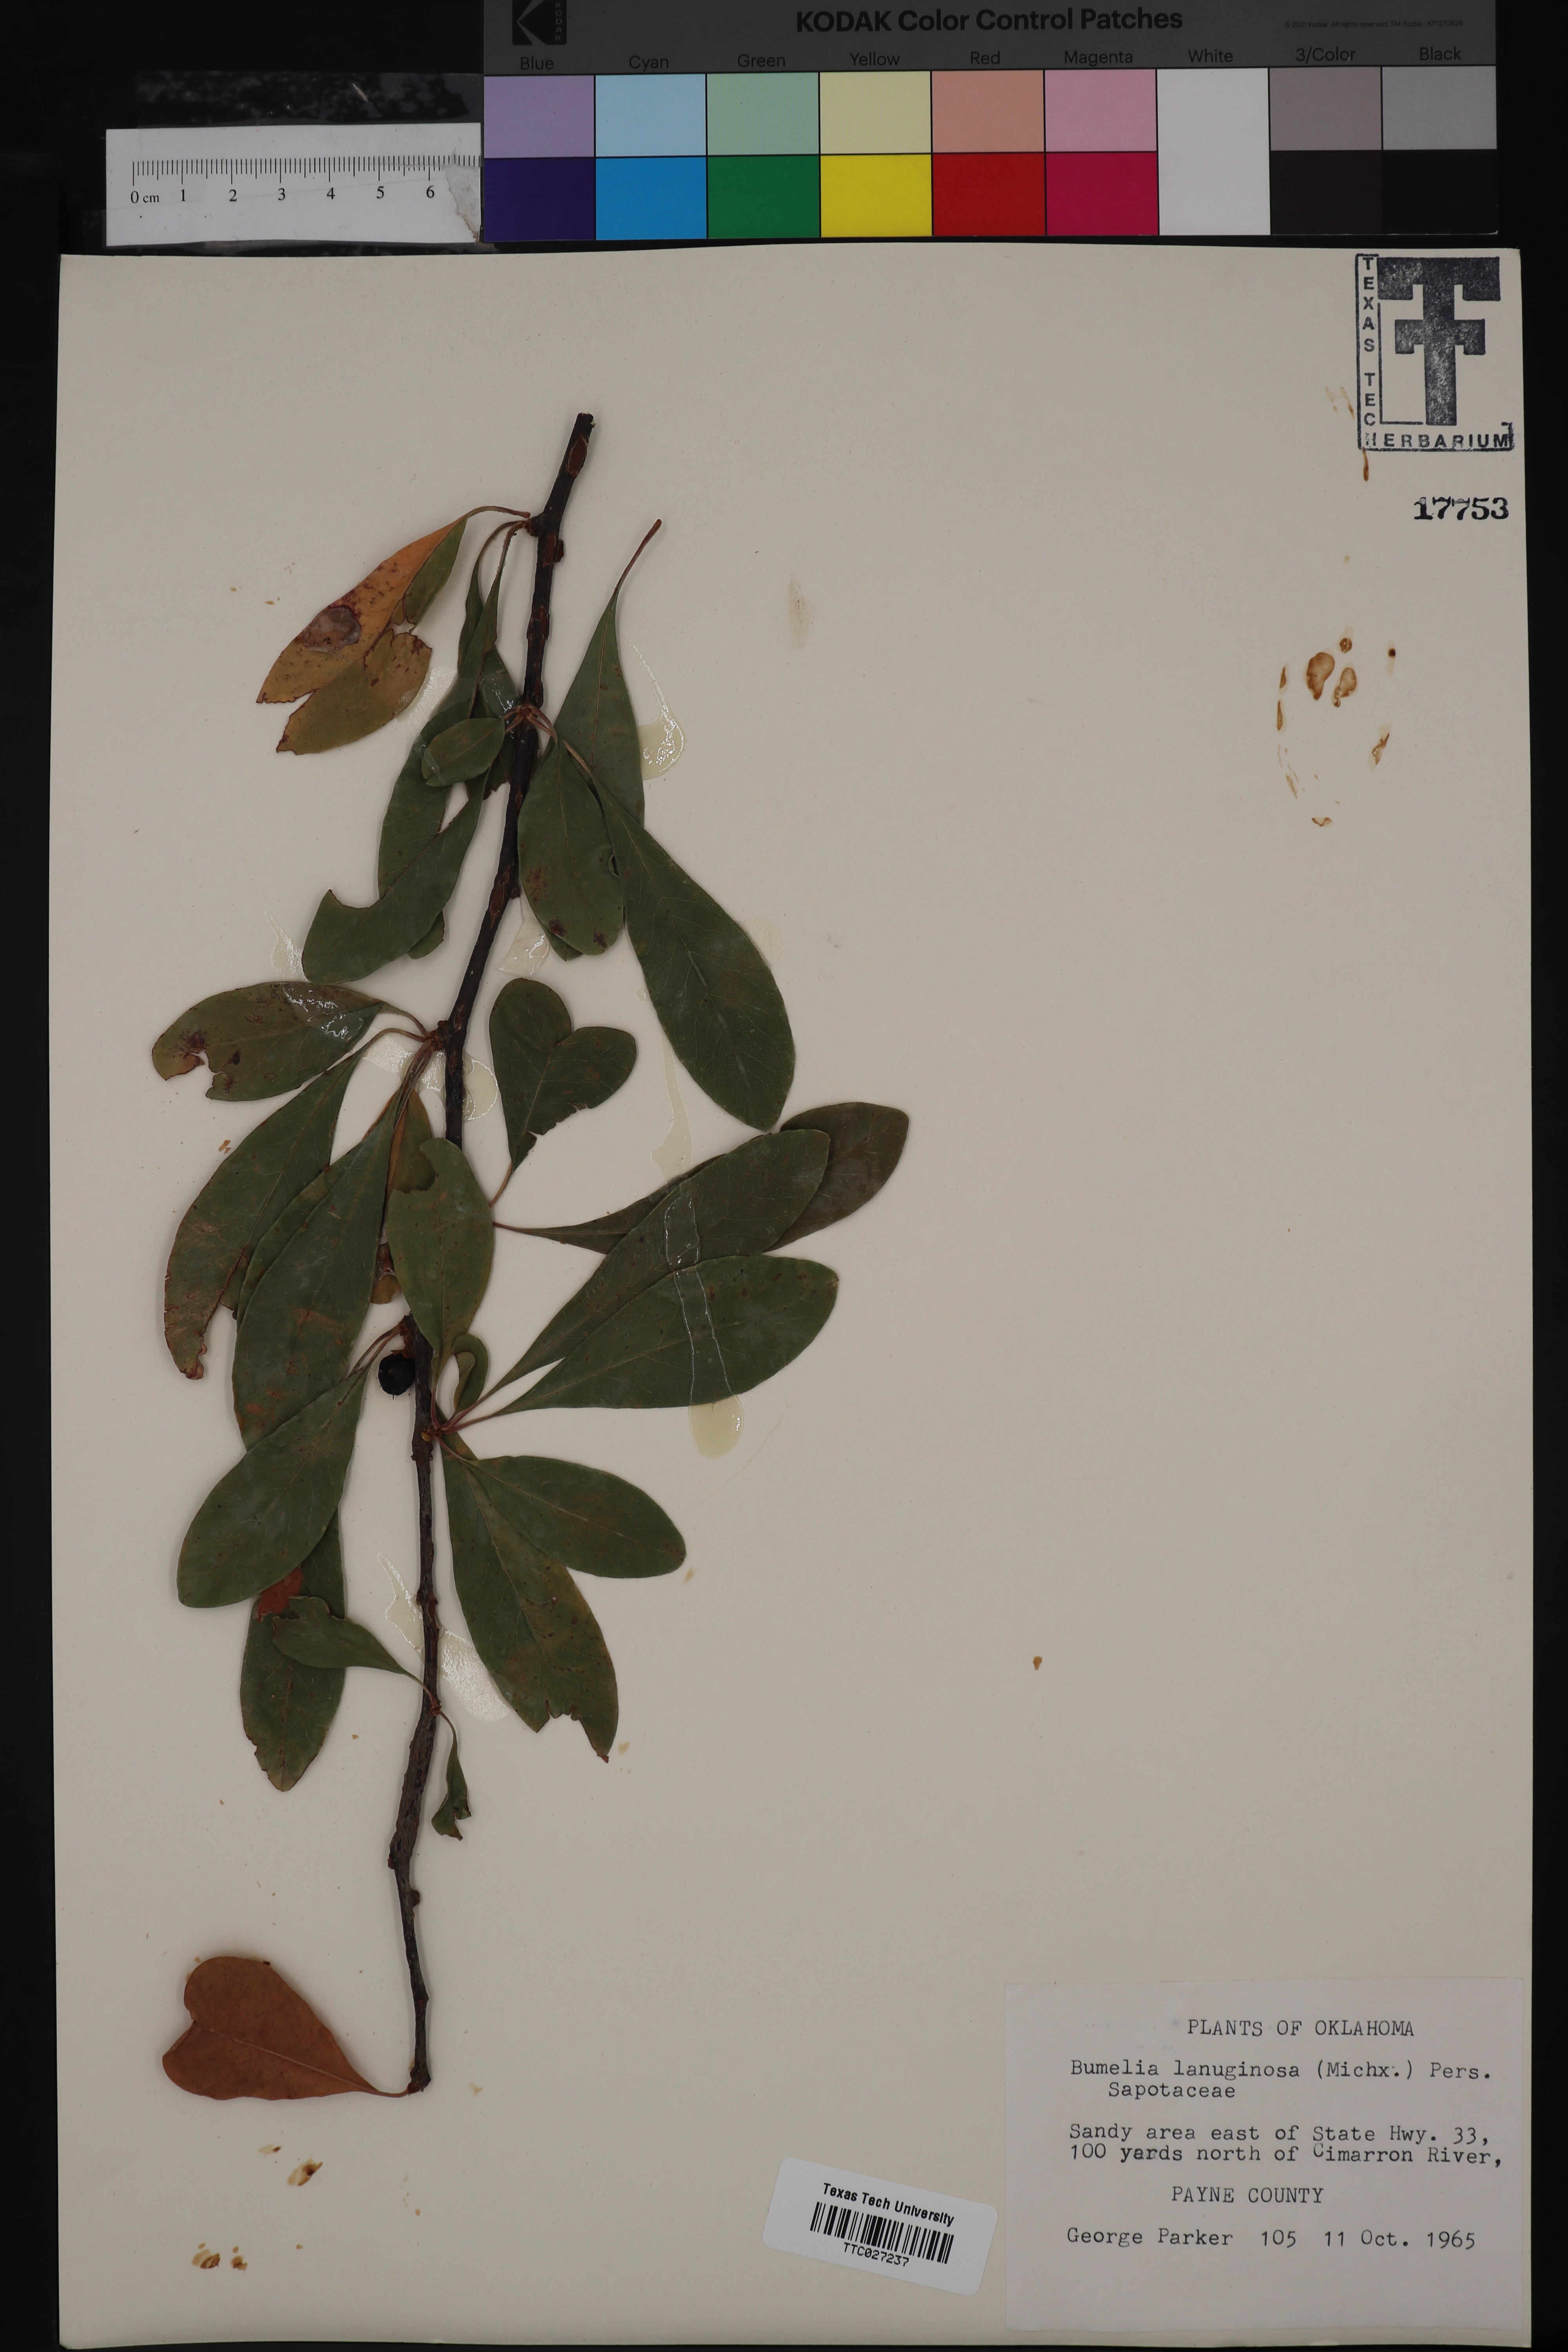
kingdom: Plantae
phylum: Tracheophyta
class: Magnoliopsida
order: Ericales
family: Sapotaceae
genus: Sideroxylon
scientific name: Sideroxylon lanuginosum
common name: Chittamwood
